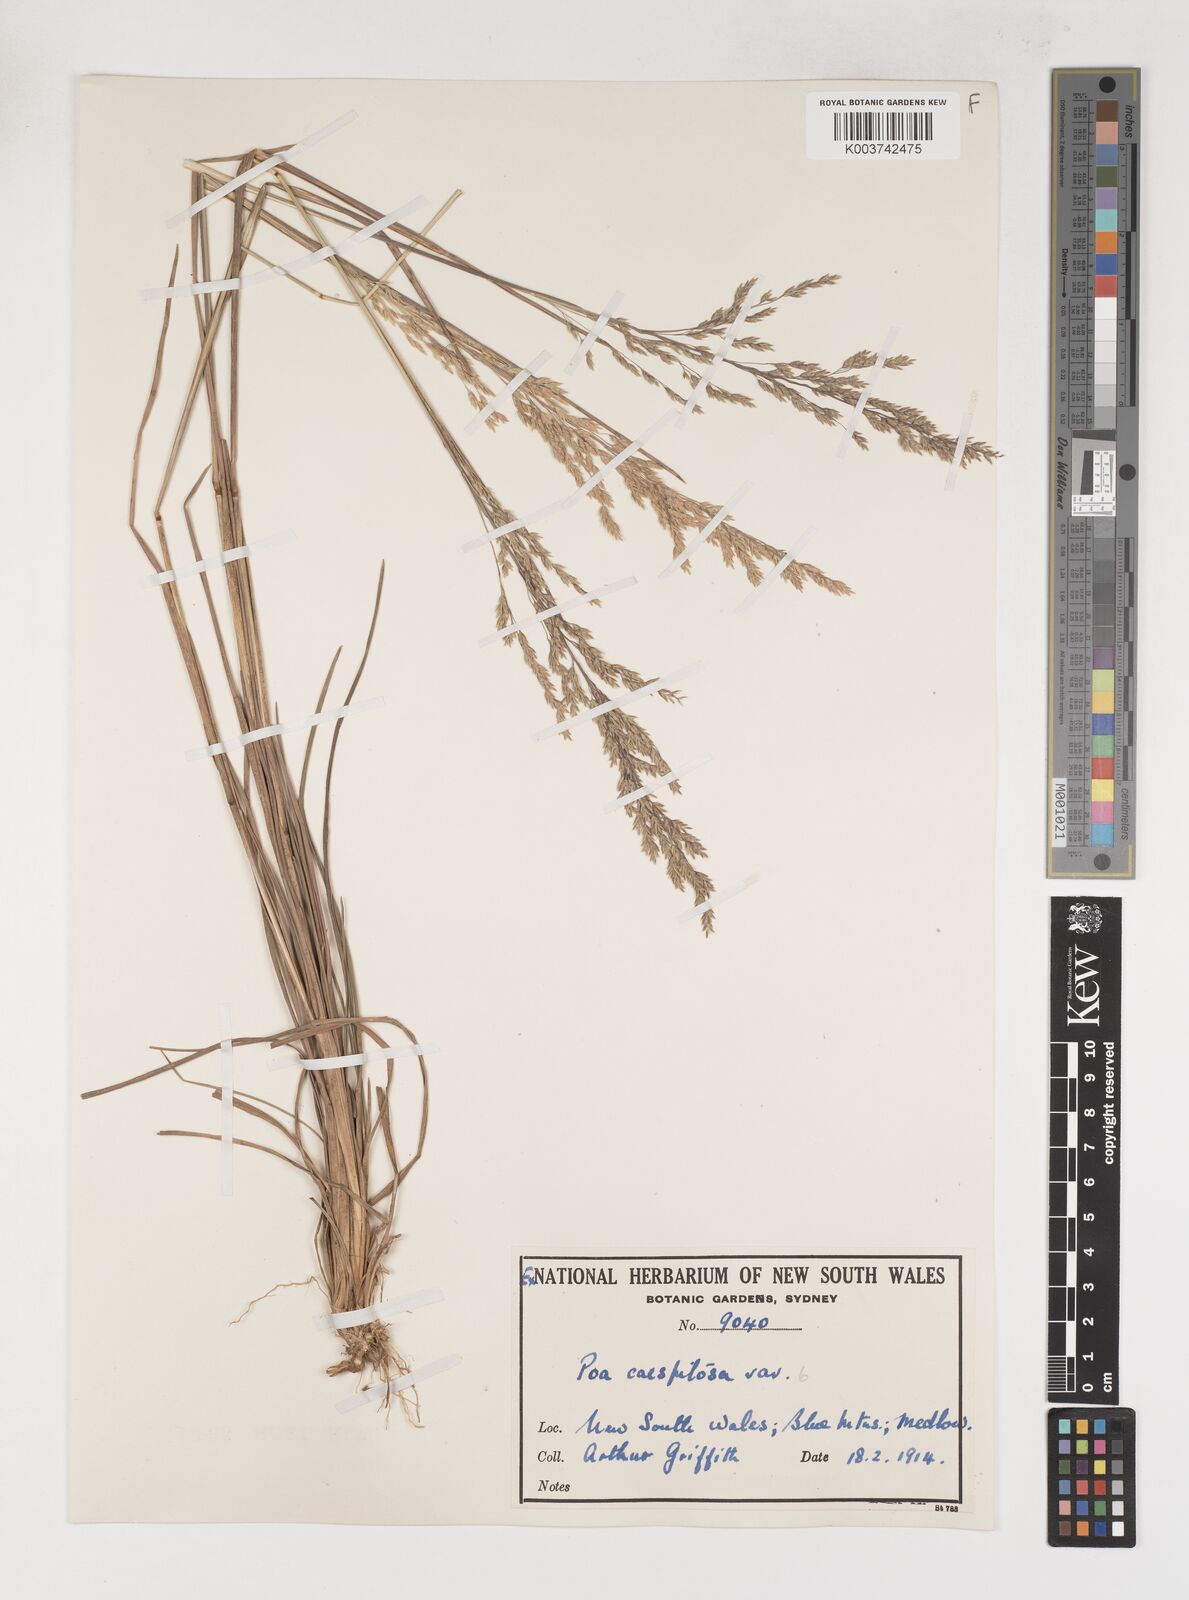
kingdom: Plantae
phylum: Tracheophyta
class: Liliopsida
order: Poales
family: Poaceae
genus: Poa
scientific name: Poa
